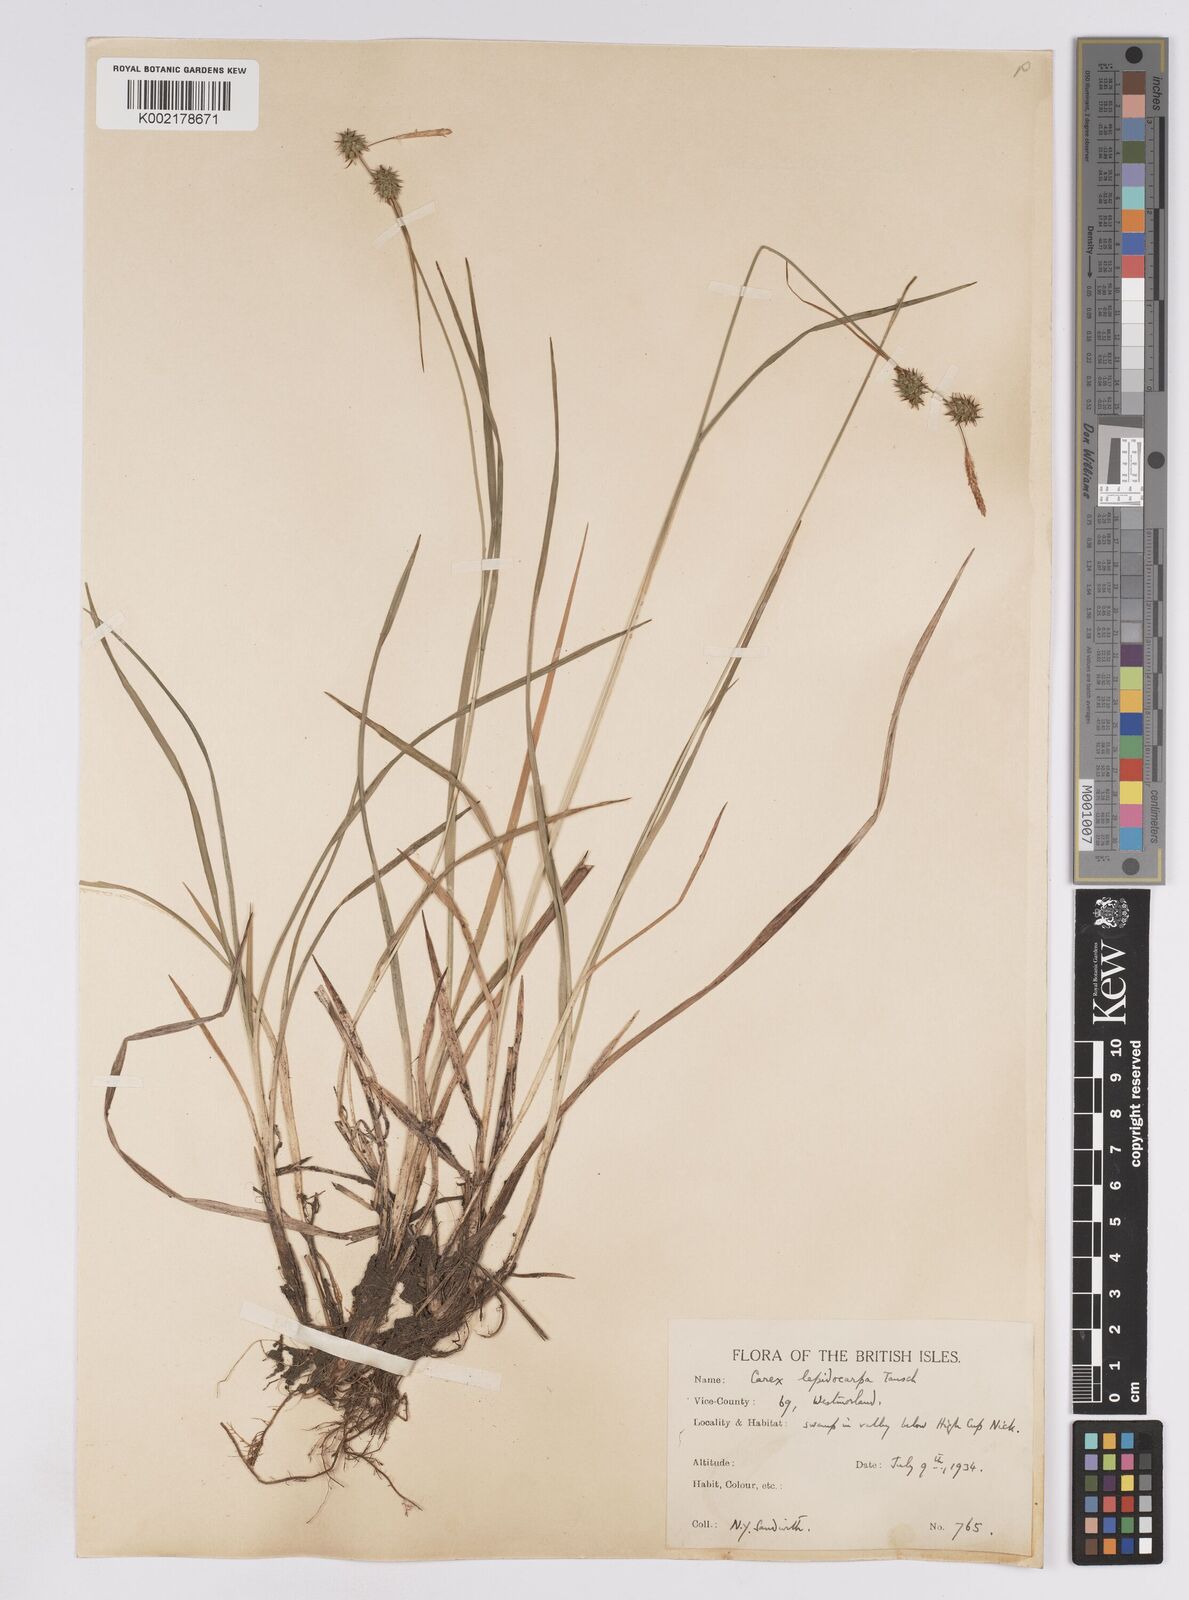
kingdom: Plantae
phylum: Tracheophyta
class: Liliopsida
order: Poales
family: Cyperaceae
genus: Carex
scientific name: Carex lepidocarpa
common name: Long-stalked yellow-sedge
